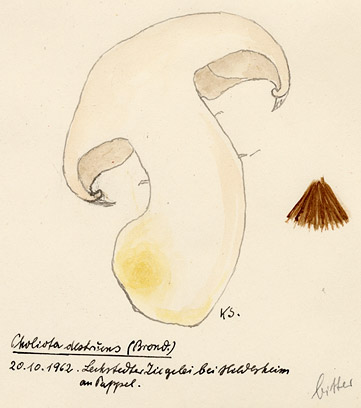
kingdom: Fungi
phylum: Basidiomycota
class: Agaricomycetes
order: Agaricales
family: Strophariaceae
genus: Pholiota
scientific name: Pholiota populnea
